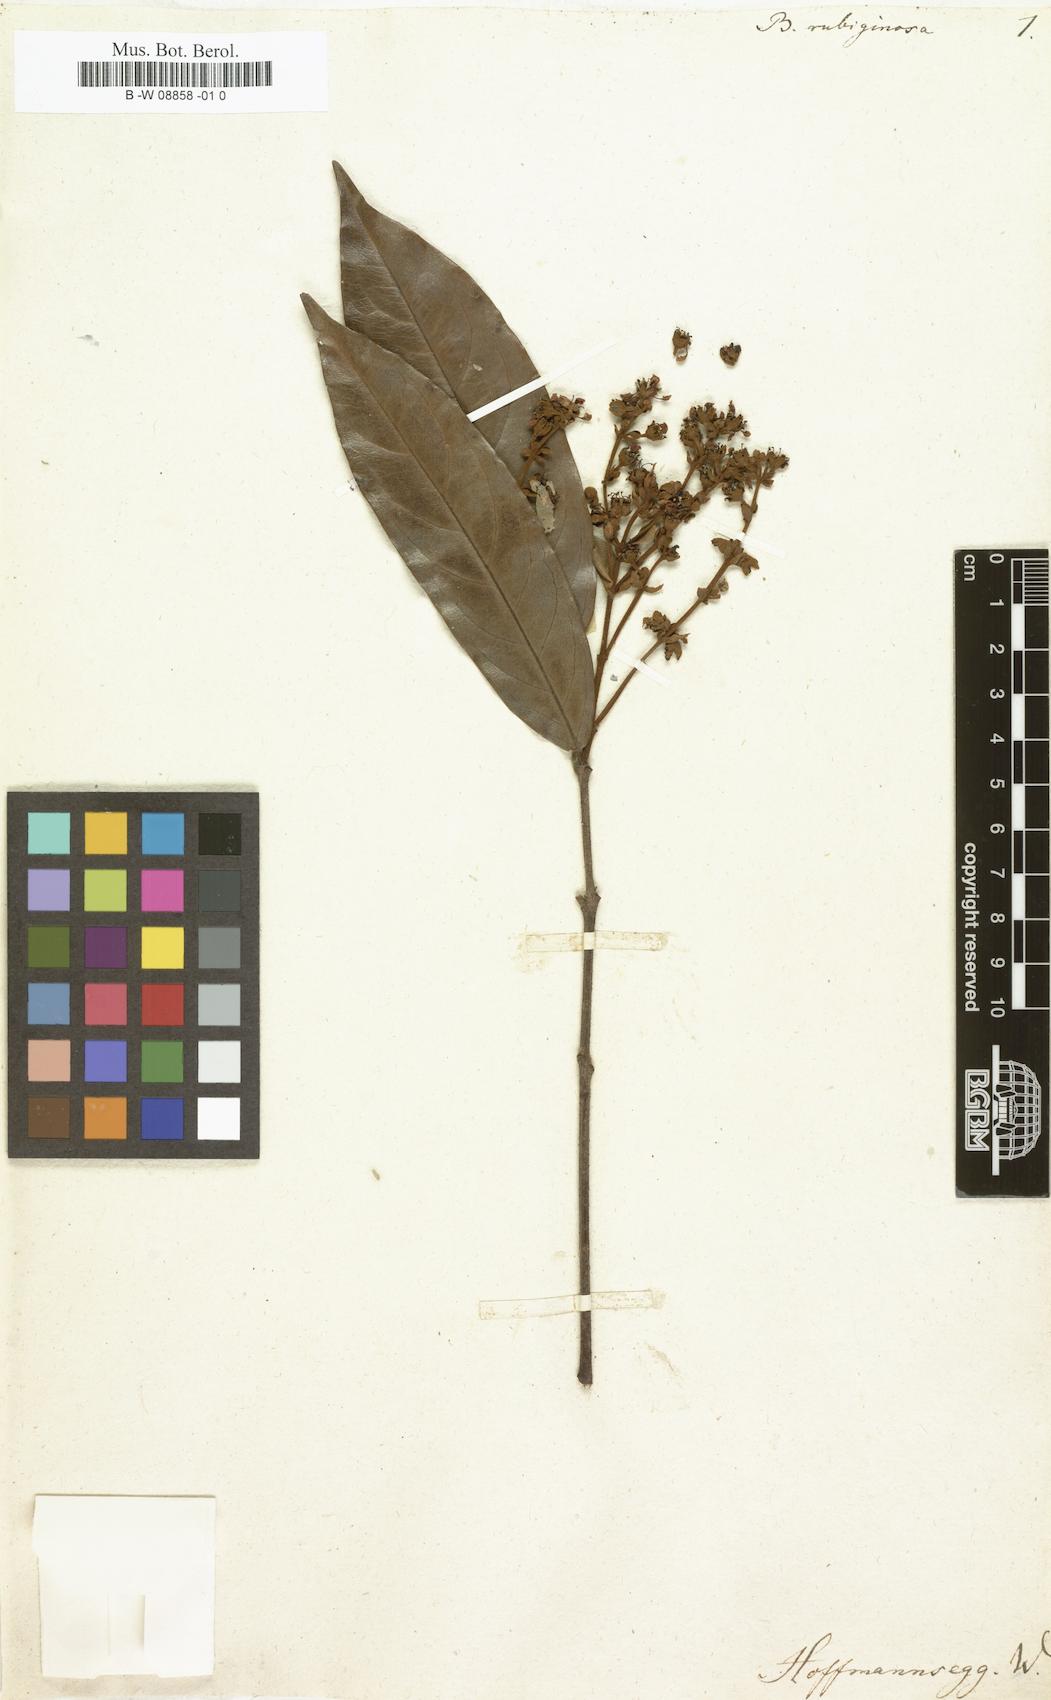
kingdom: Plantae
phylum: Tracheophyta
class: Magnoliopsida
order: Malpighiales
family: Malpighiaceae
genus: Heteropterys
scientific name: Heteropterys
